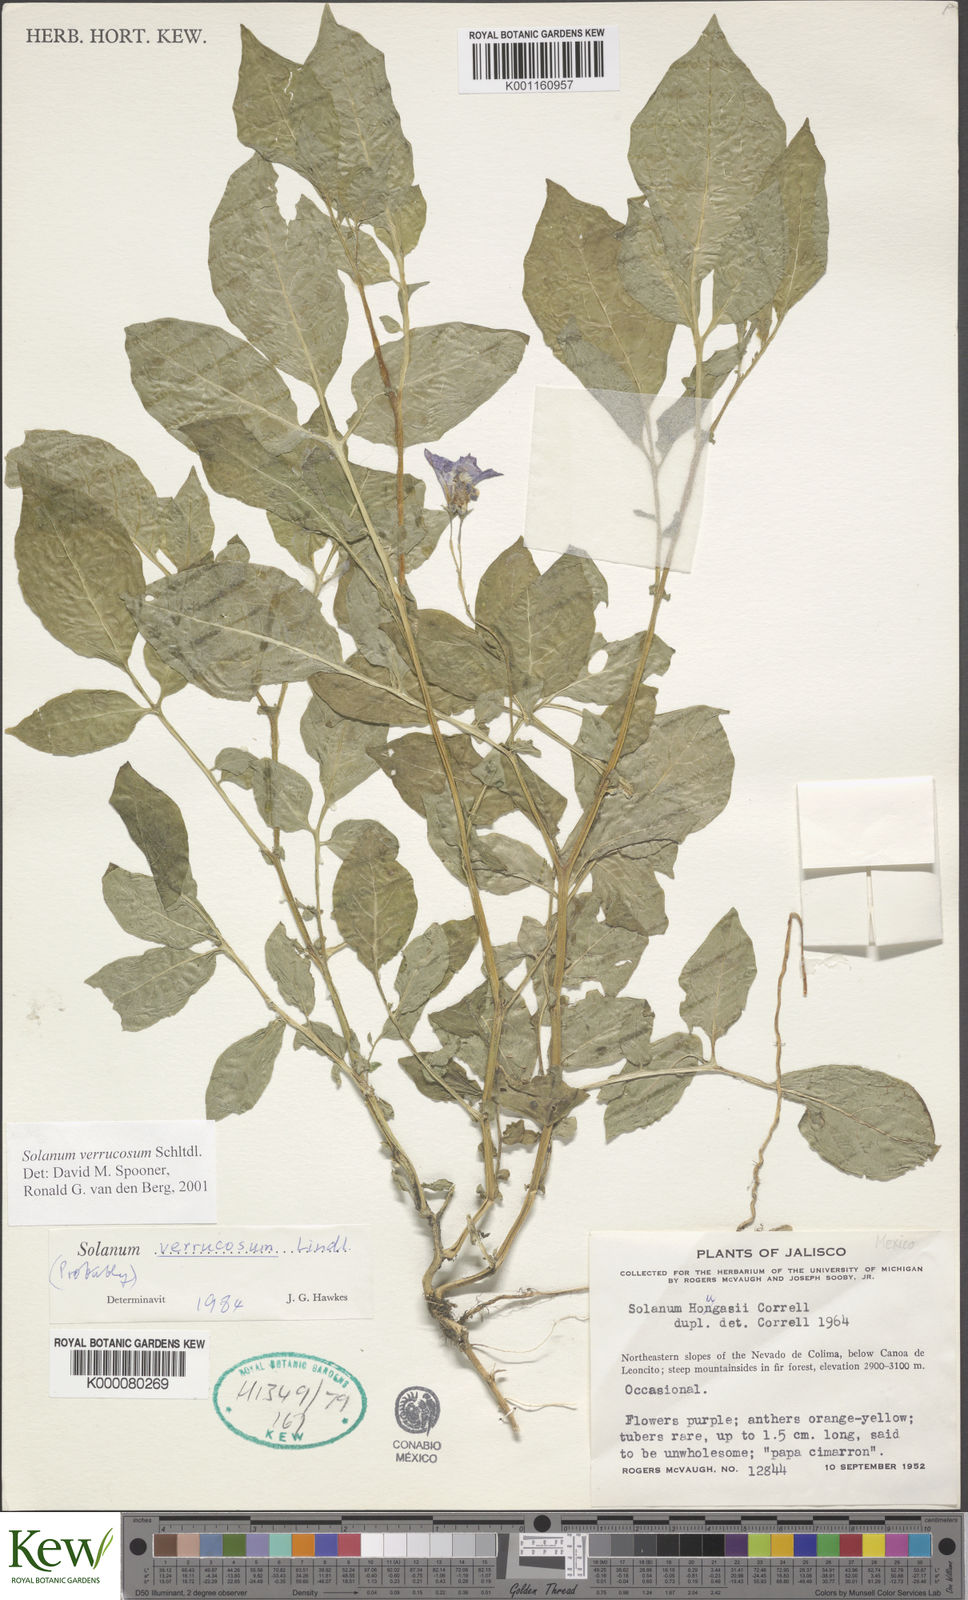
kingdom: Plantae
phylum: Tracheophyta
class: Magnoliopsida
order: Solanales
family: Solanaceae
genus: Solanum
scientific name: Solanum verrucosum
